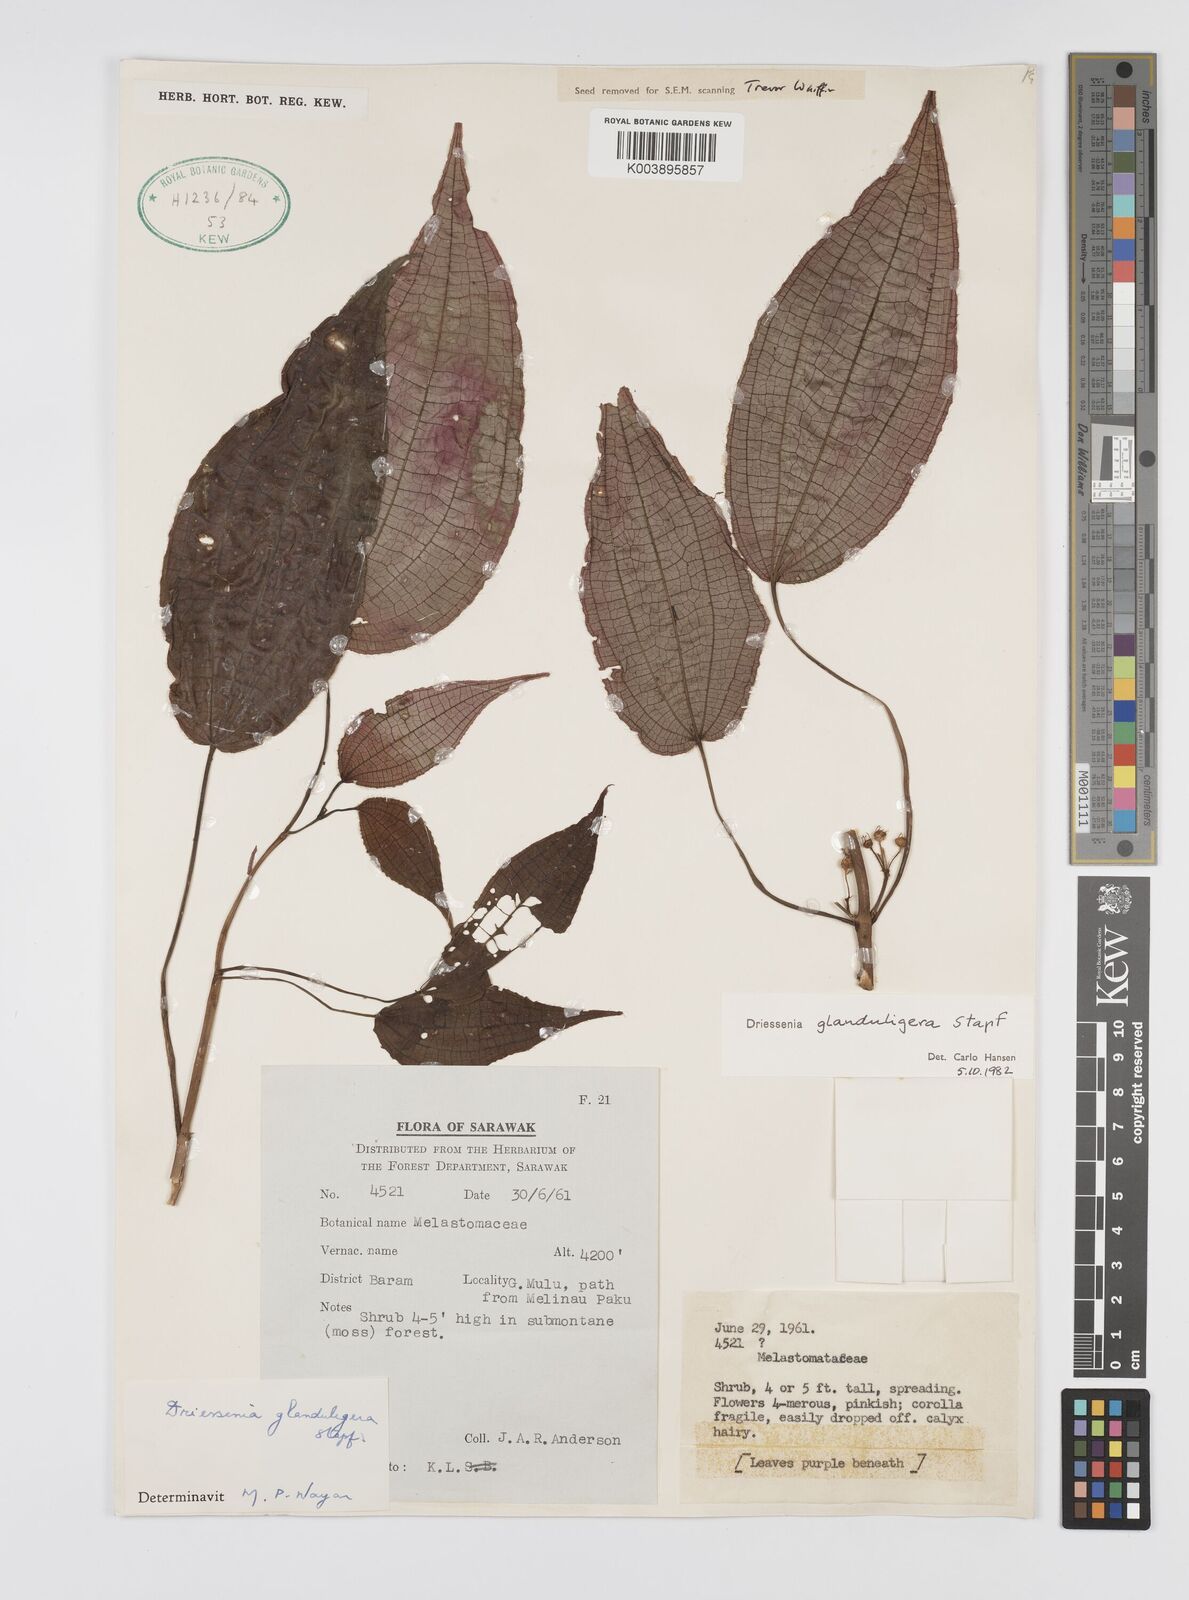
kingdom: Plantae
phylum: Tracheophyta
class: Magnoliopsida
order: Myrtales
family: Melastomataceae
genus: Driessenia
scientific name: Driessenia glanduligera
